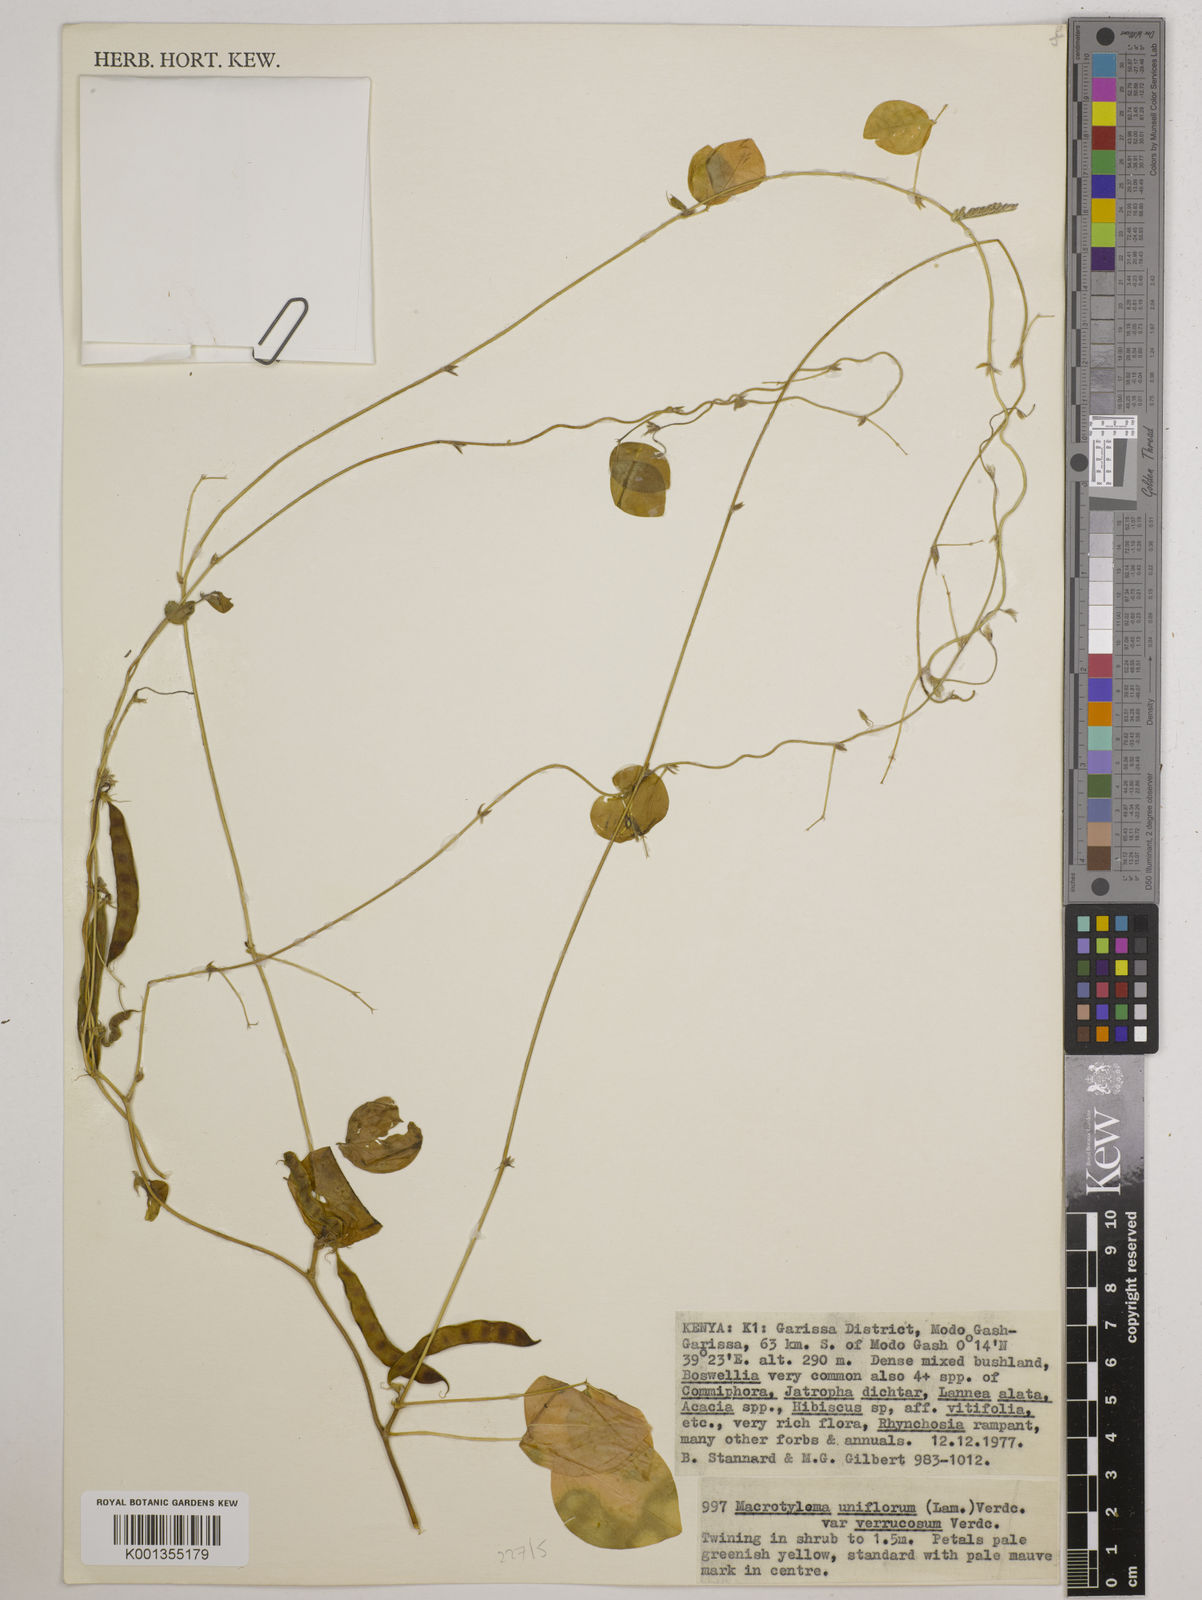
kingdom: Plantae
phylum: Tracheophyta
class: Magnoliopsida
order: Fabales
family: Fabaceae
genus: Macrotyloma
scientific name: Macrotyloma
